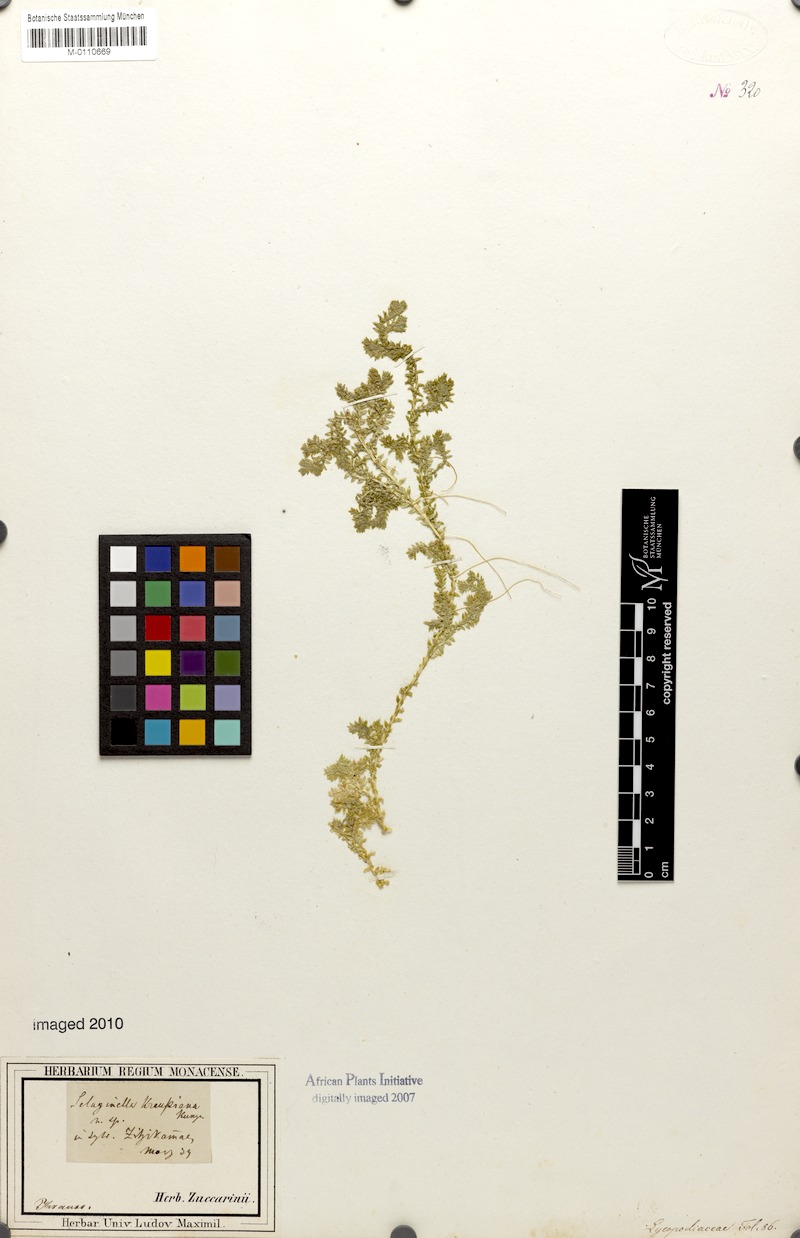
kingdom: Plantae
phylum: Tracheophyta
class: Lycopodiopsida
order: Selaginellales
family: Selaginellaceae
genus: Selaginella
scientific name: Selaginella kraussiana
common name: Krauss' spikemoss
